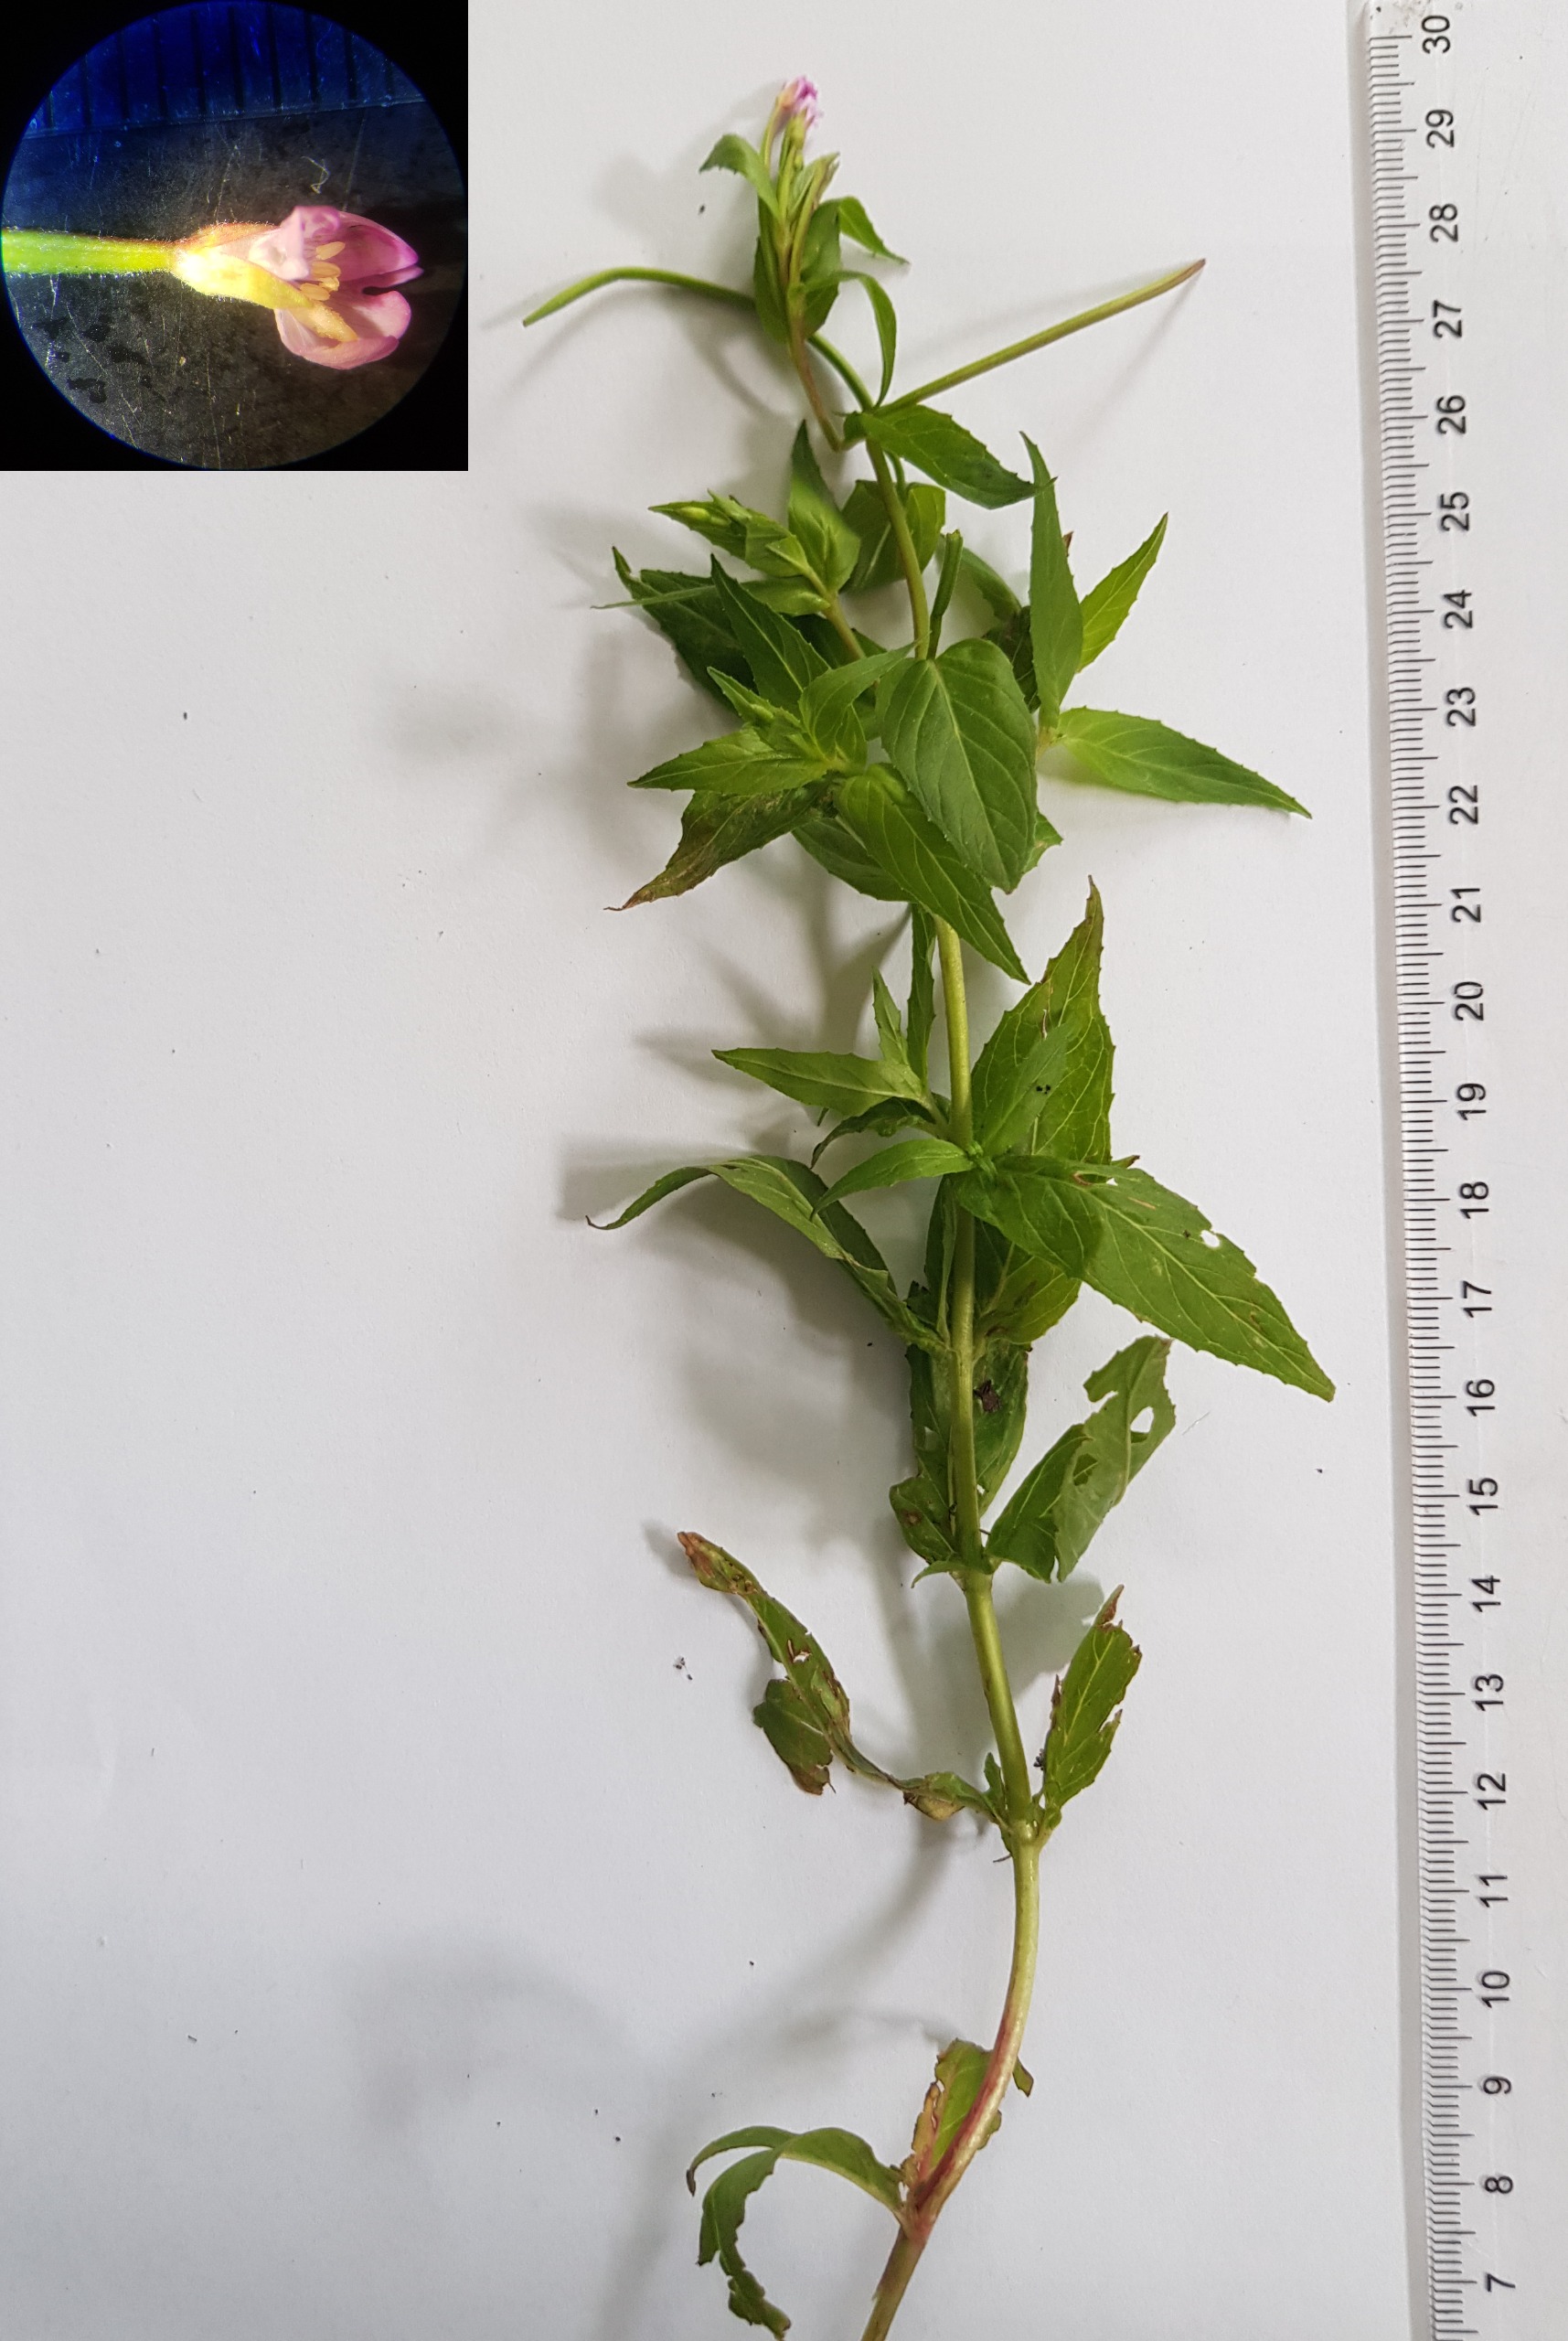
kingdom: Plantae
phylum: Tracheophyta
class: Magnoliopsida
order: Myrtales
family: Onagraceae
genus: Epilobium
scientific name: Epilobium ciliatum
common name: Kirtlet dueurt
